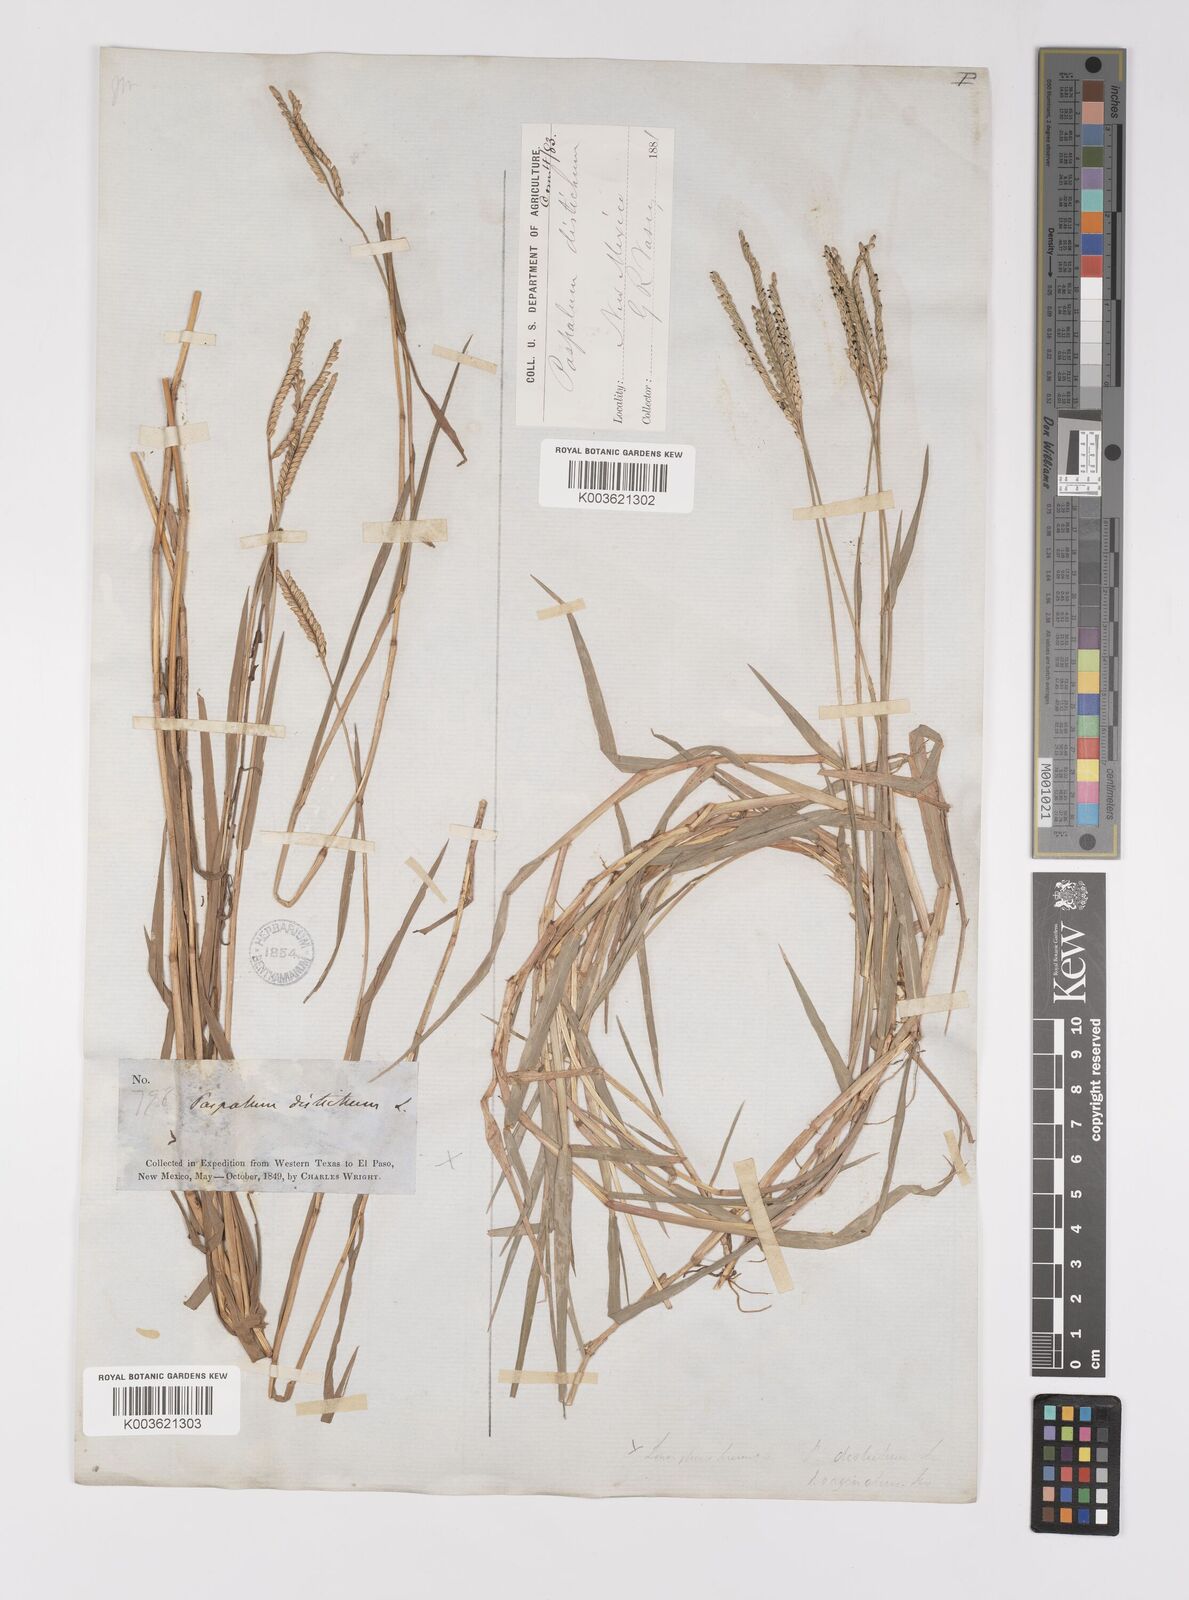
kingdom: Plantae
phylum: Tracheophyta
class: Liliopsida
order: Poales
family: Poaceae
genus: Paspalum
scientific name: Paspalum distichum
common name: Knotgrass
